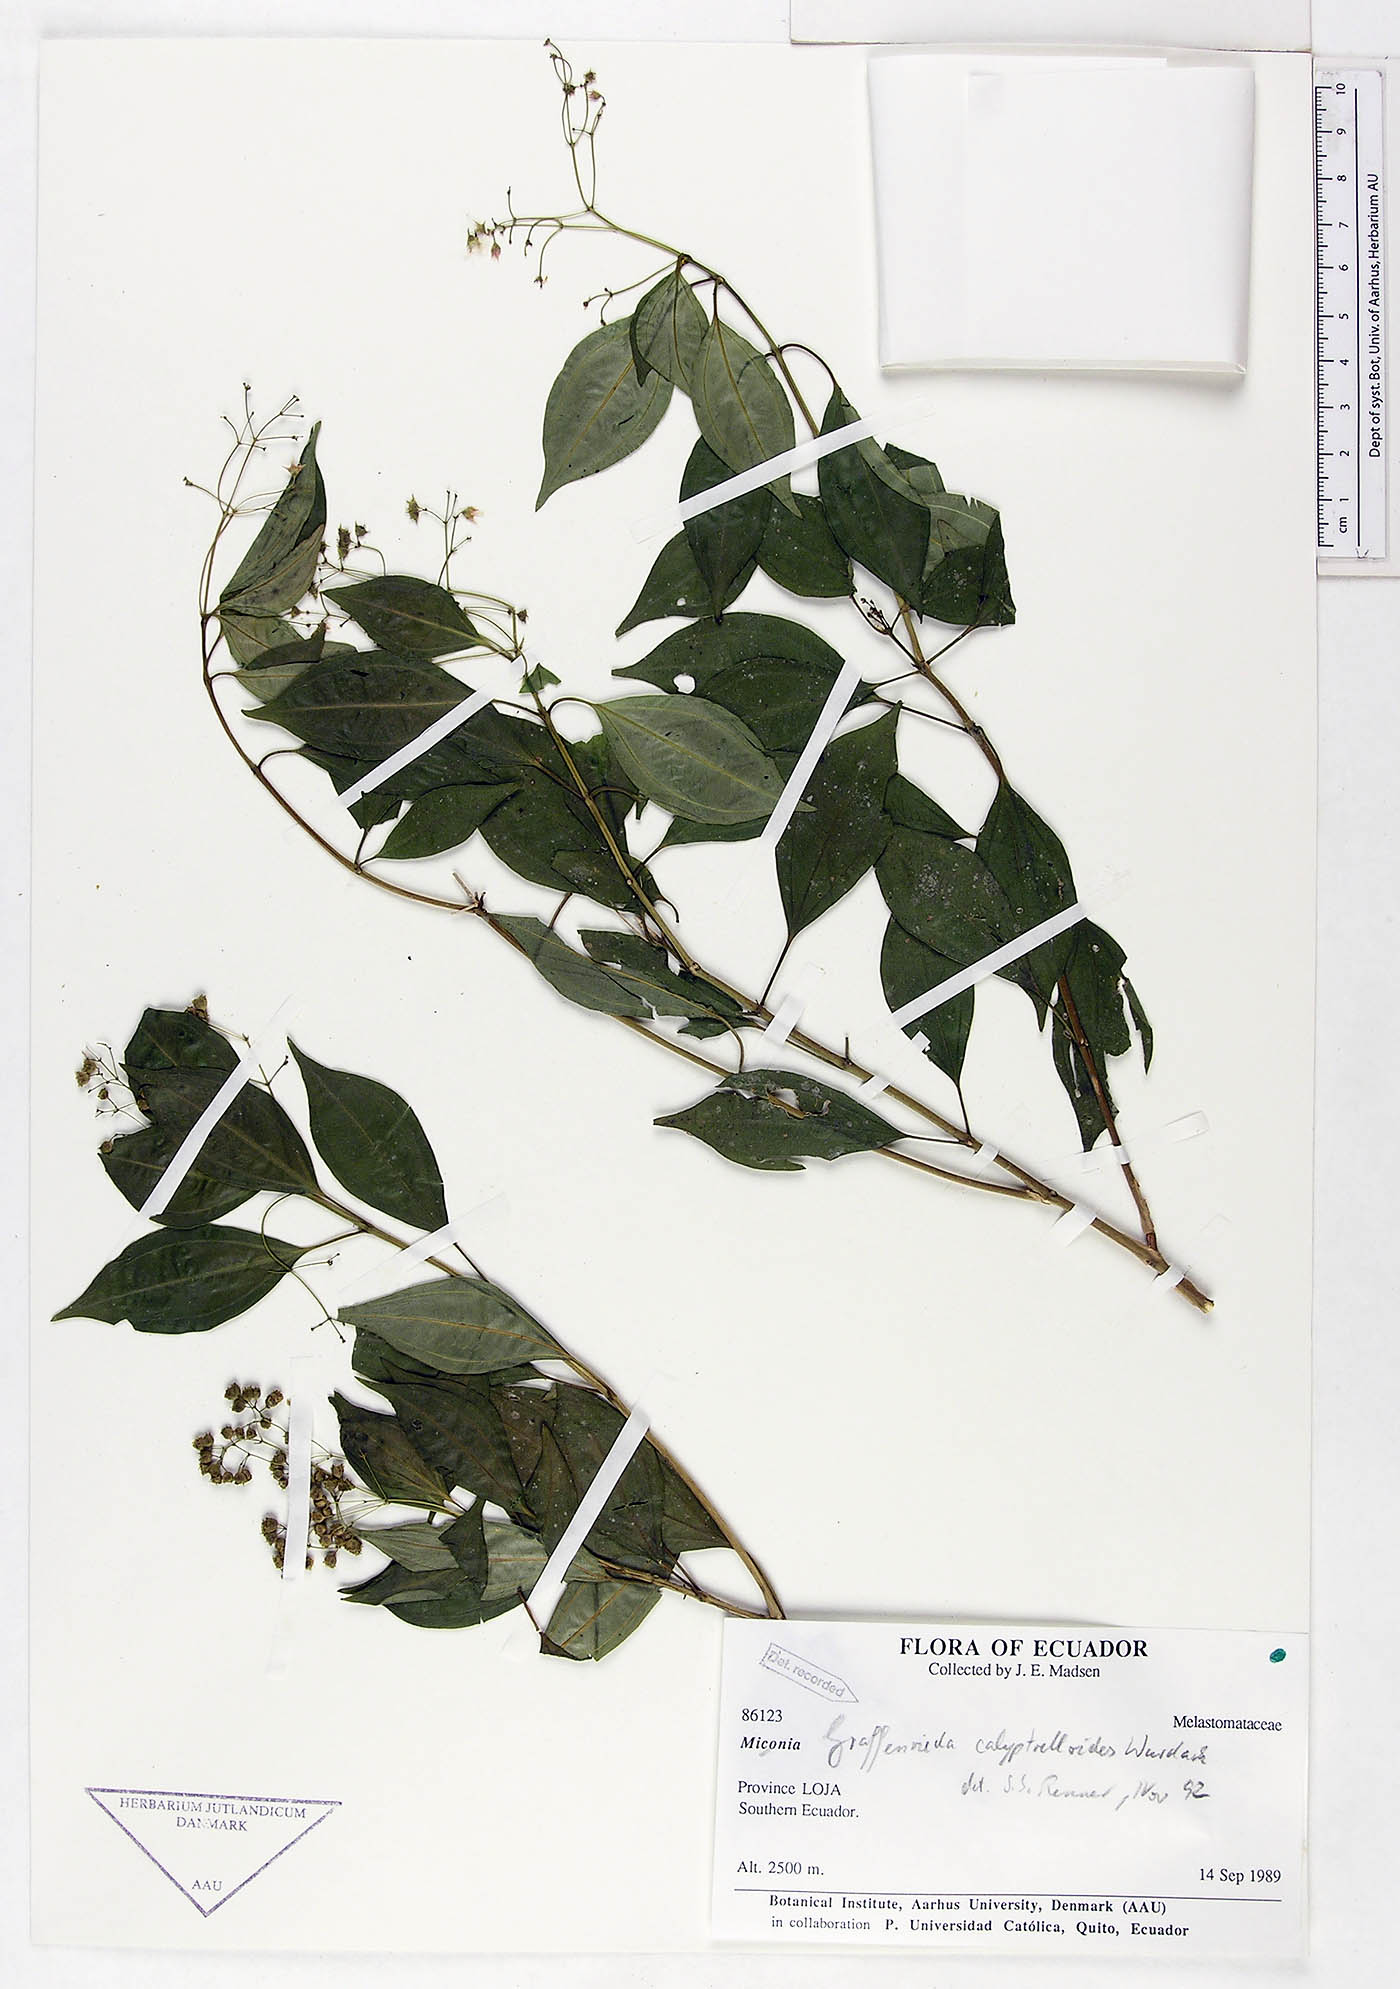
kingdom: Plantae
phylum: Tracheophyta
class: Magnoliopsida
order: Myrtales
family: Melastomataceae
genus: Graffenrieda
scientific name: Graffenrieda calyptrelloides
